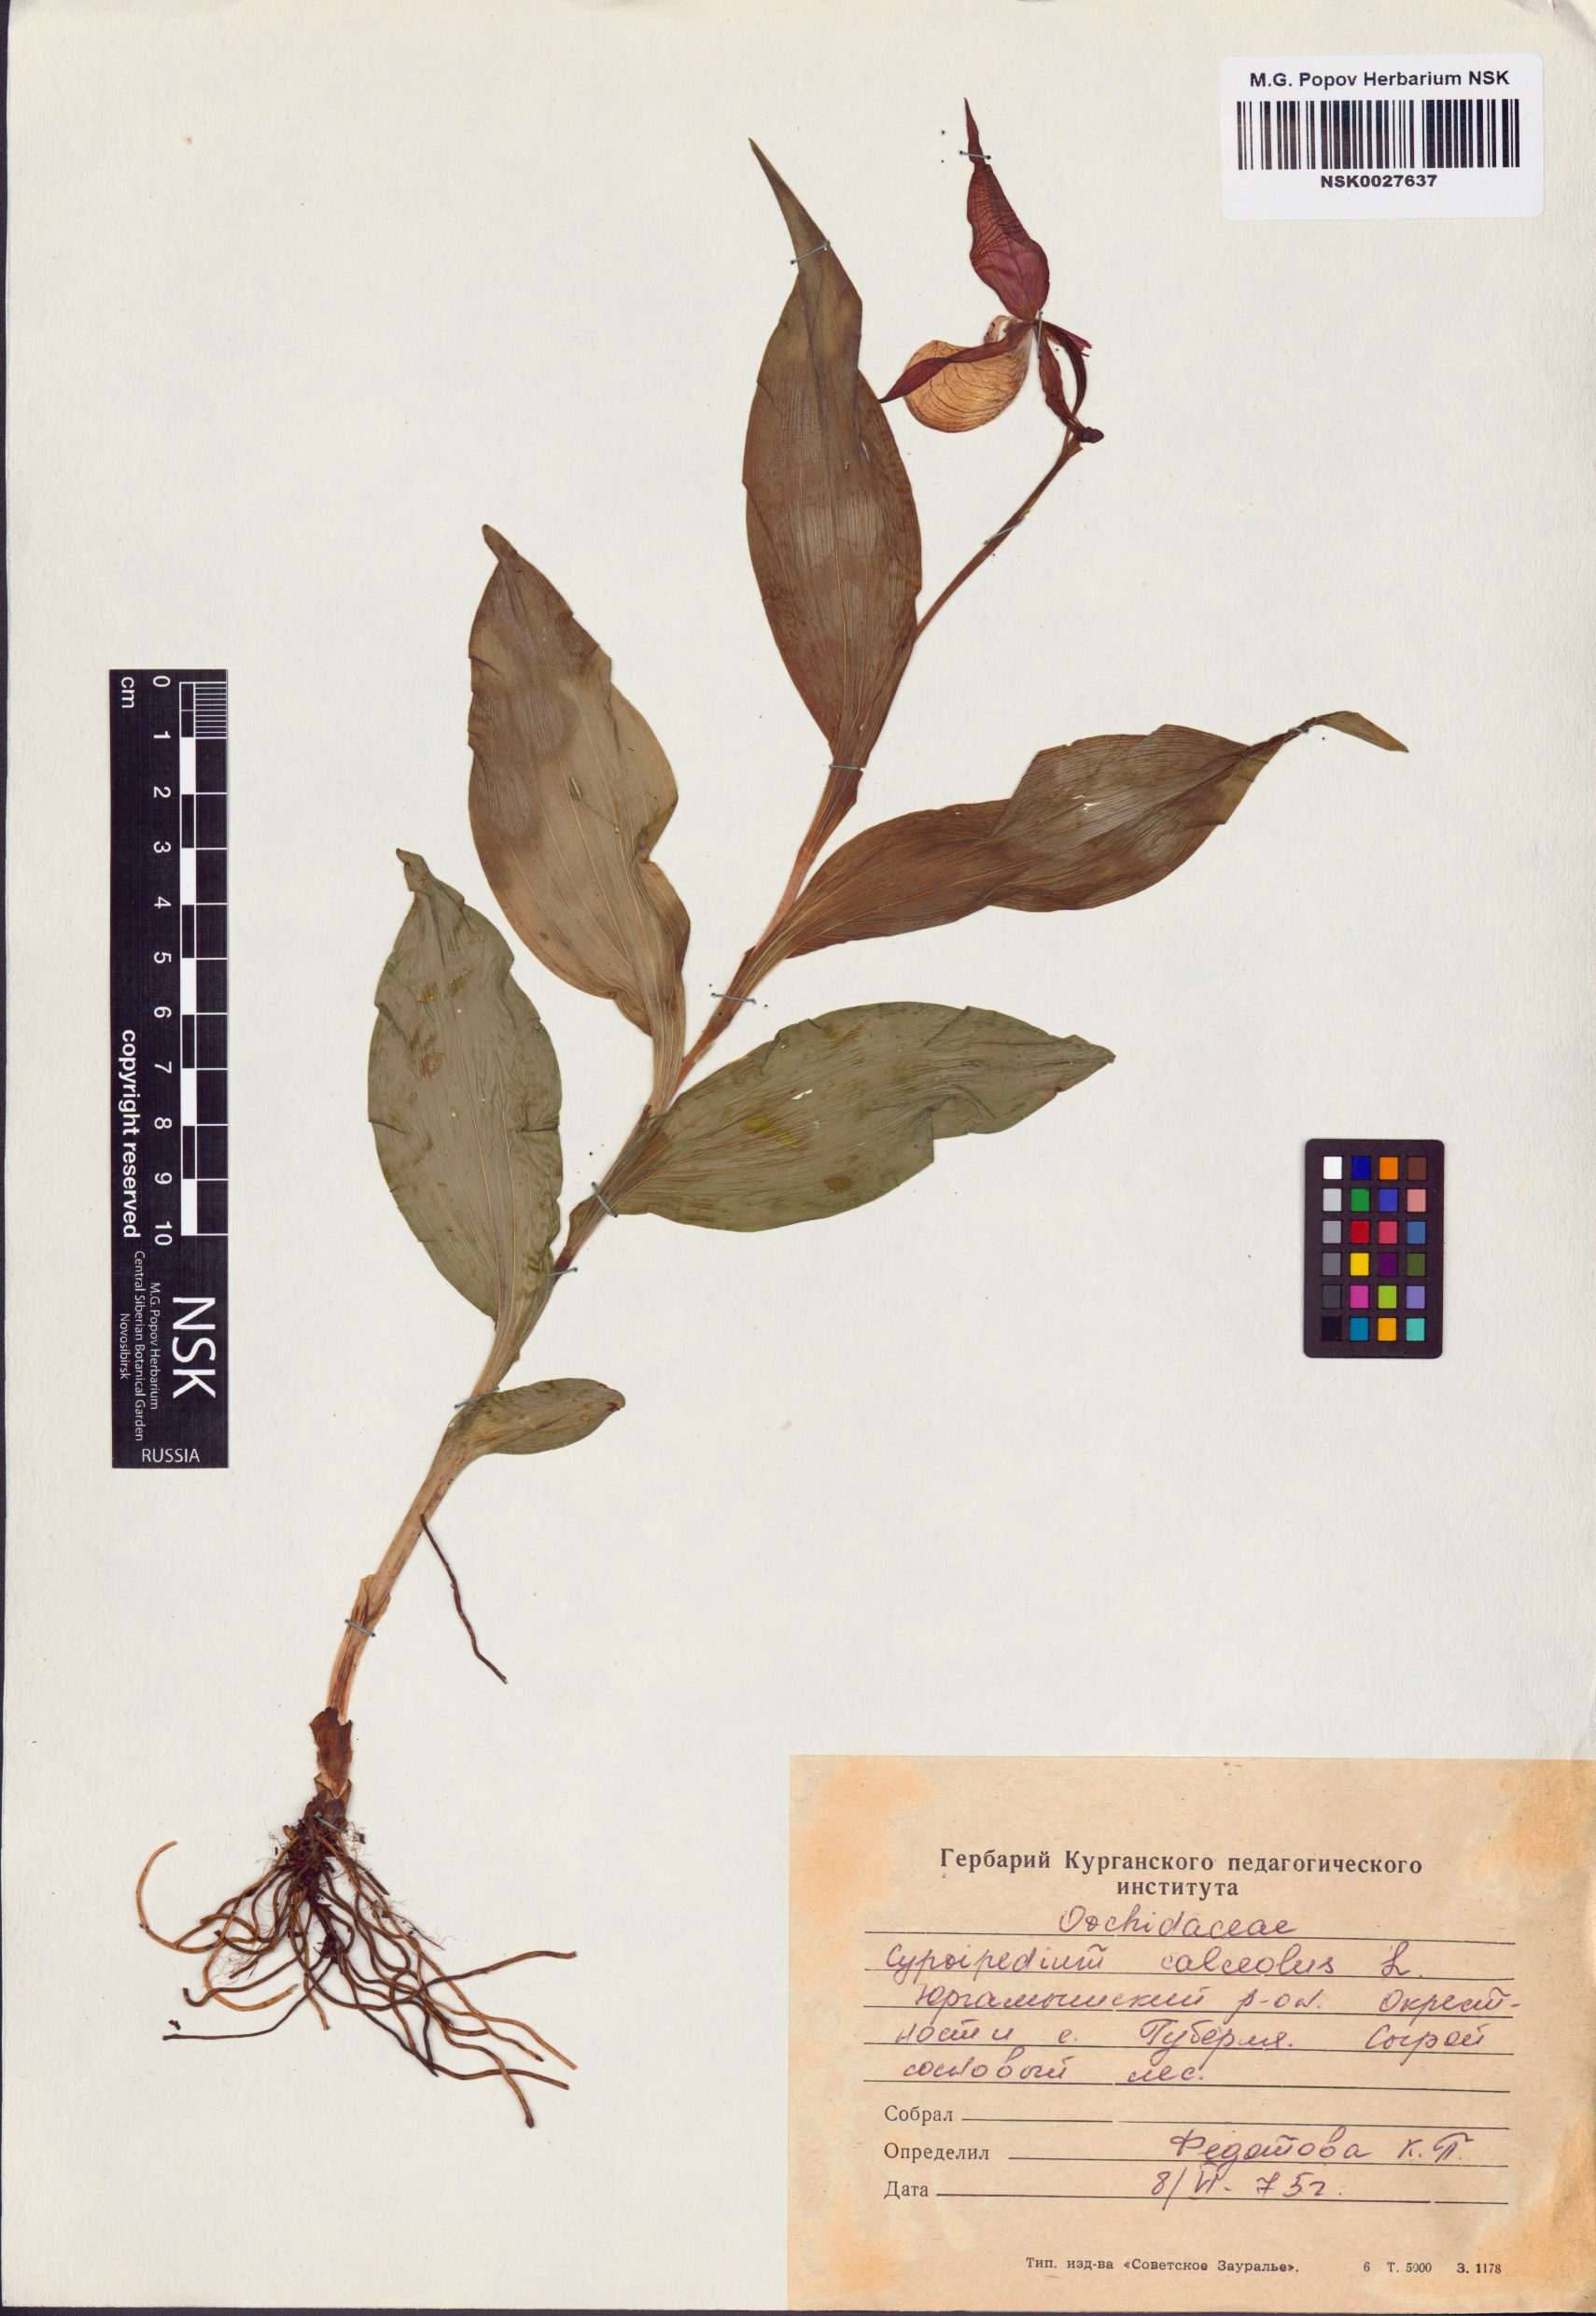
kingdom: Plantae
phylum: Tracheophyta
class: Liliopsida
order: Asparagales
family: Orchidaceae
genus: Cypripedium
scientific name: Cypripedium calceolus
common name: Lady's-slipper
